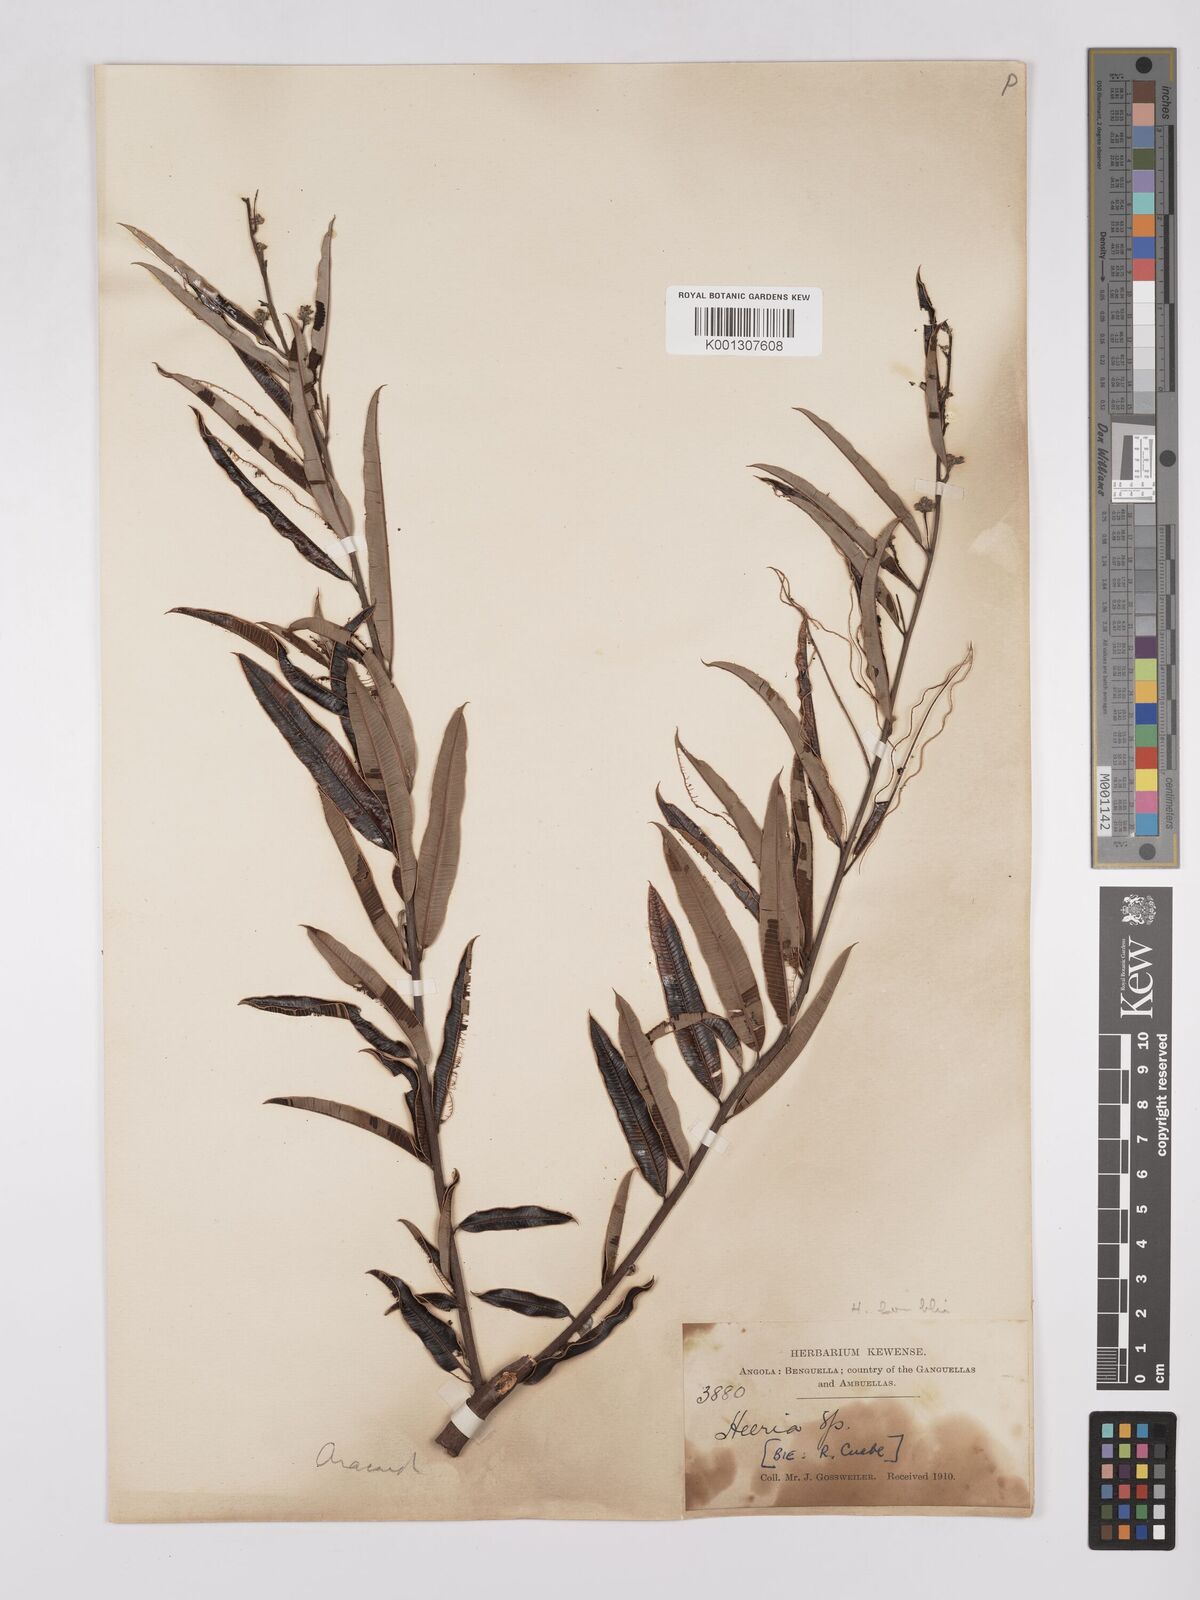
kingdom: Plantae
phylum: Tracheophyta
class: Magnoliopsida
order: Sapindales
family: Anacardiaceae
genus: Ozoroa
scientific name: Ozoroa homblei
